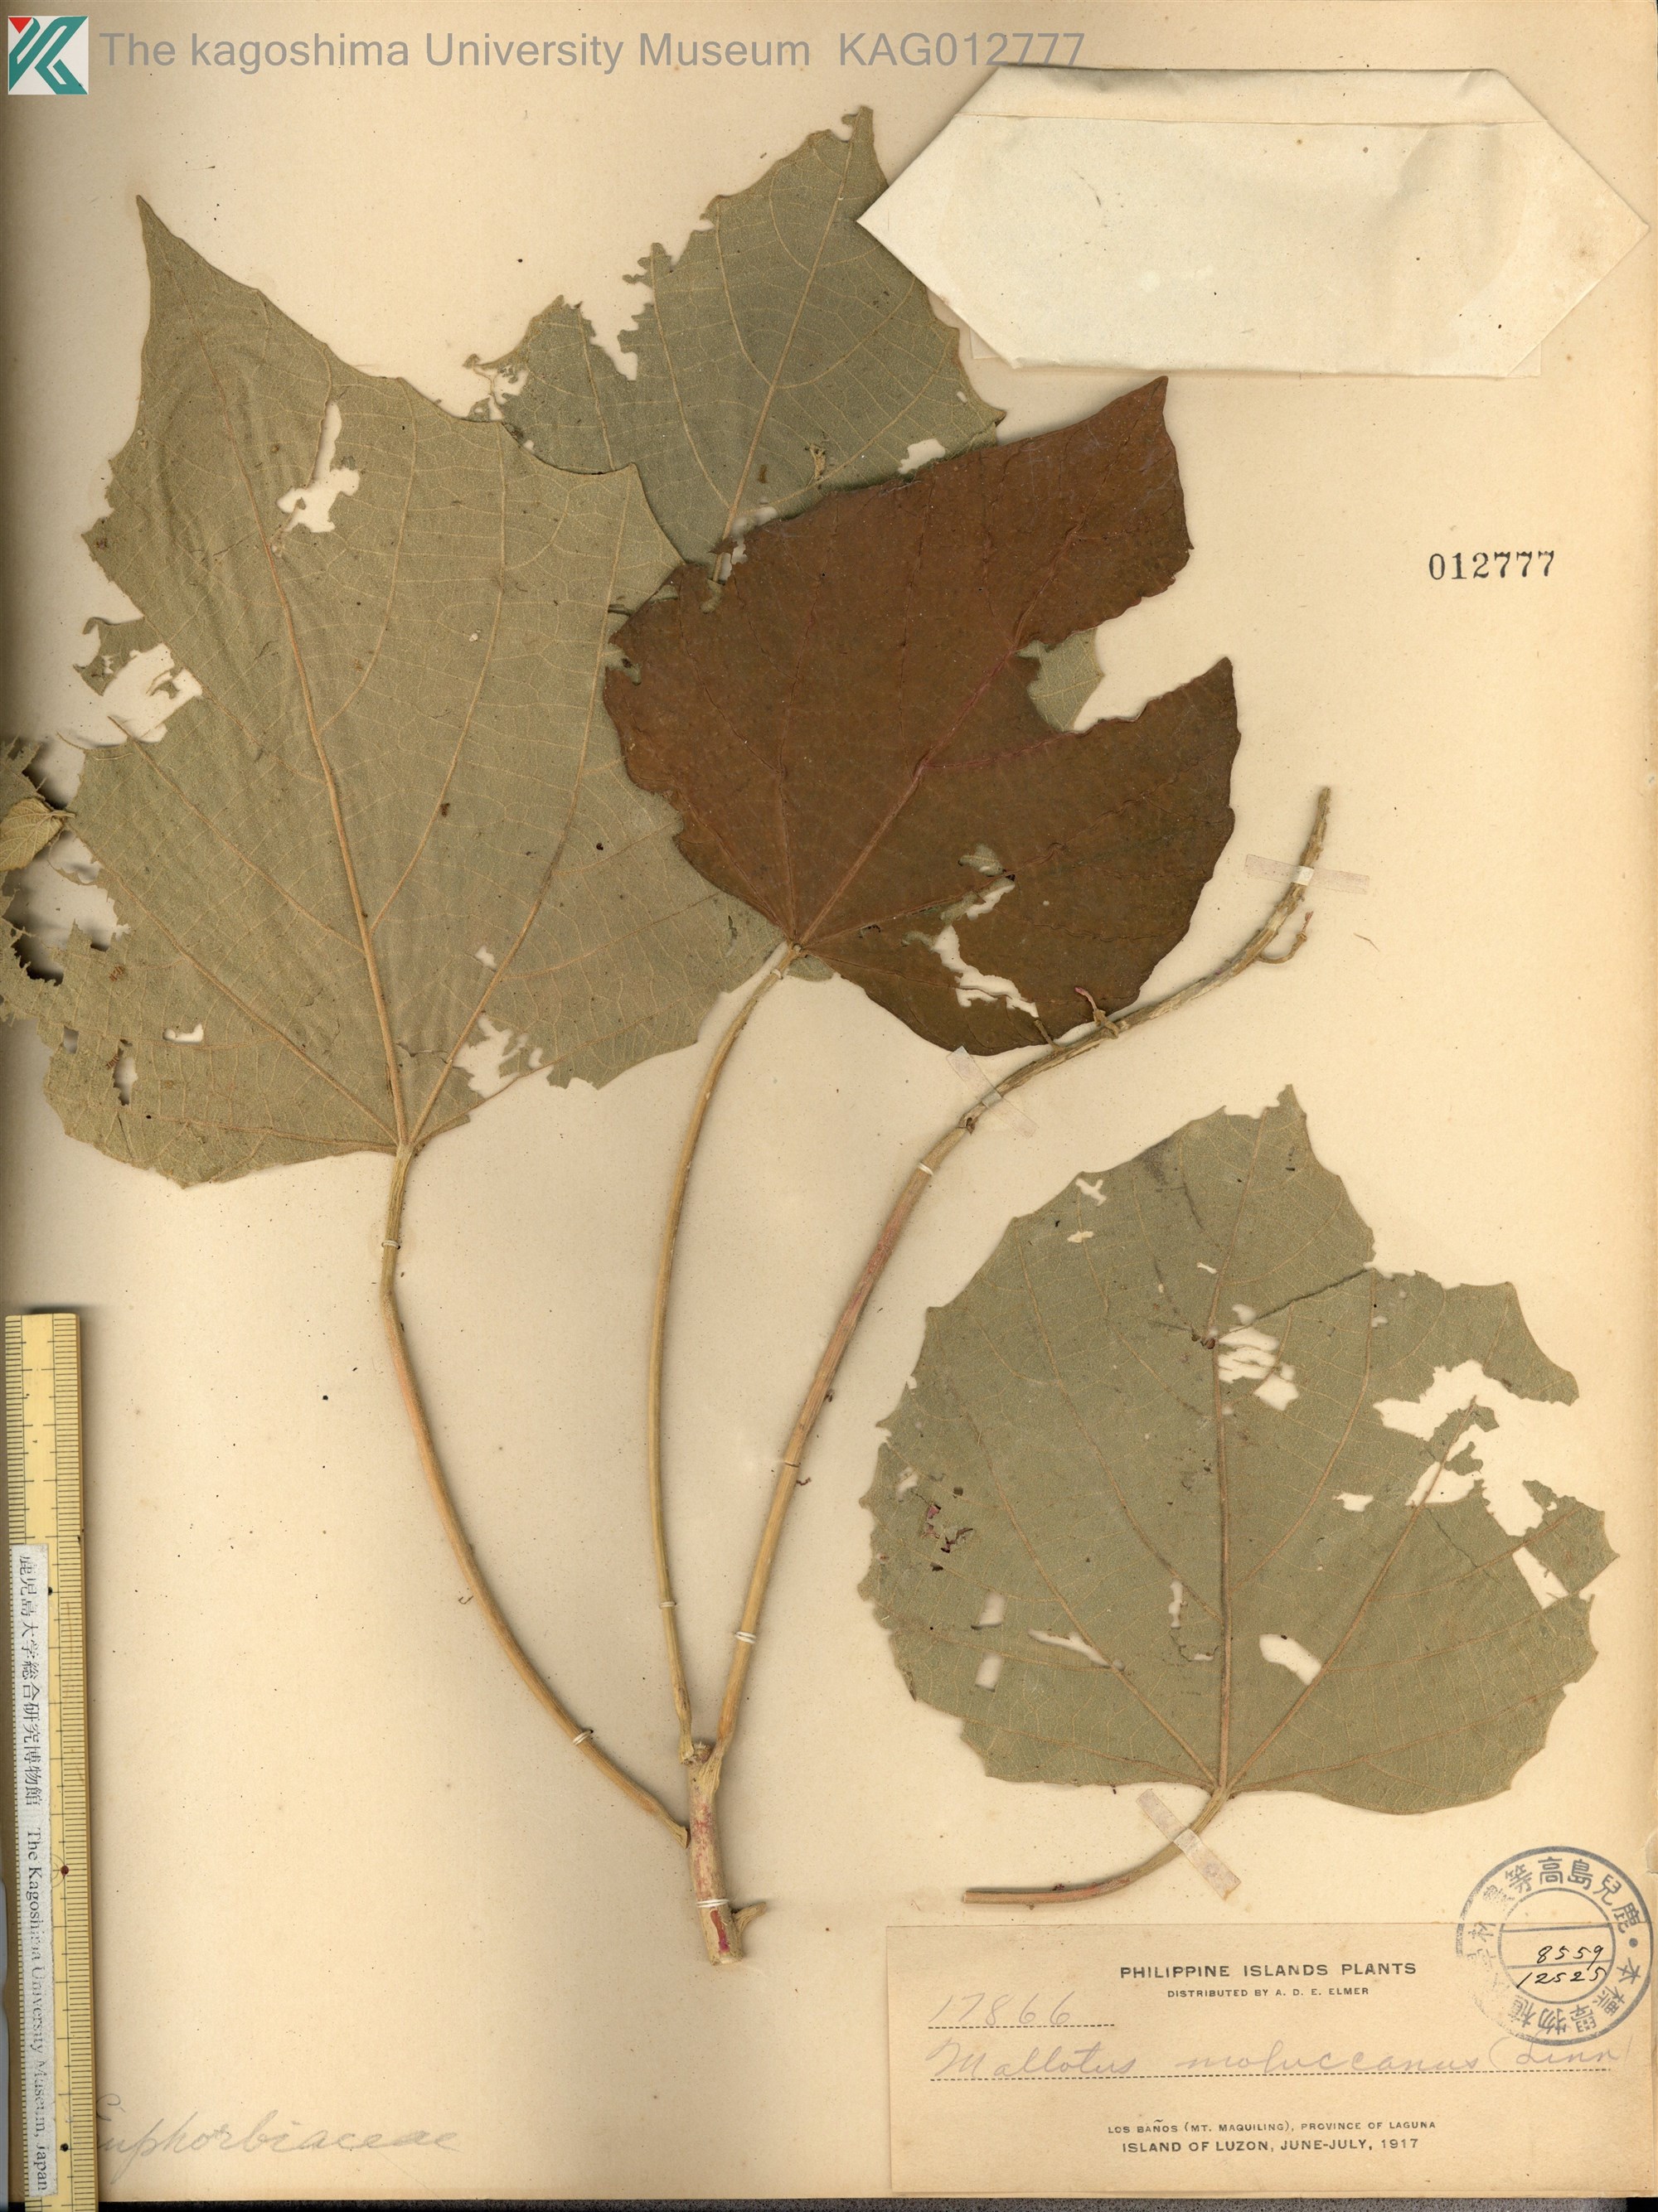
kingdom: Plantae
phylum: Tracheophyta
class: Magnoliopsida
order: Malpighiales
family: Euphorbiaceae
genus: Melanolepis
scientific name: Melanolepis multiglandulosa
